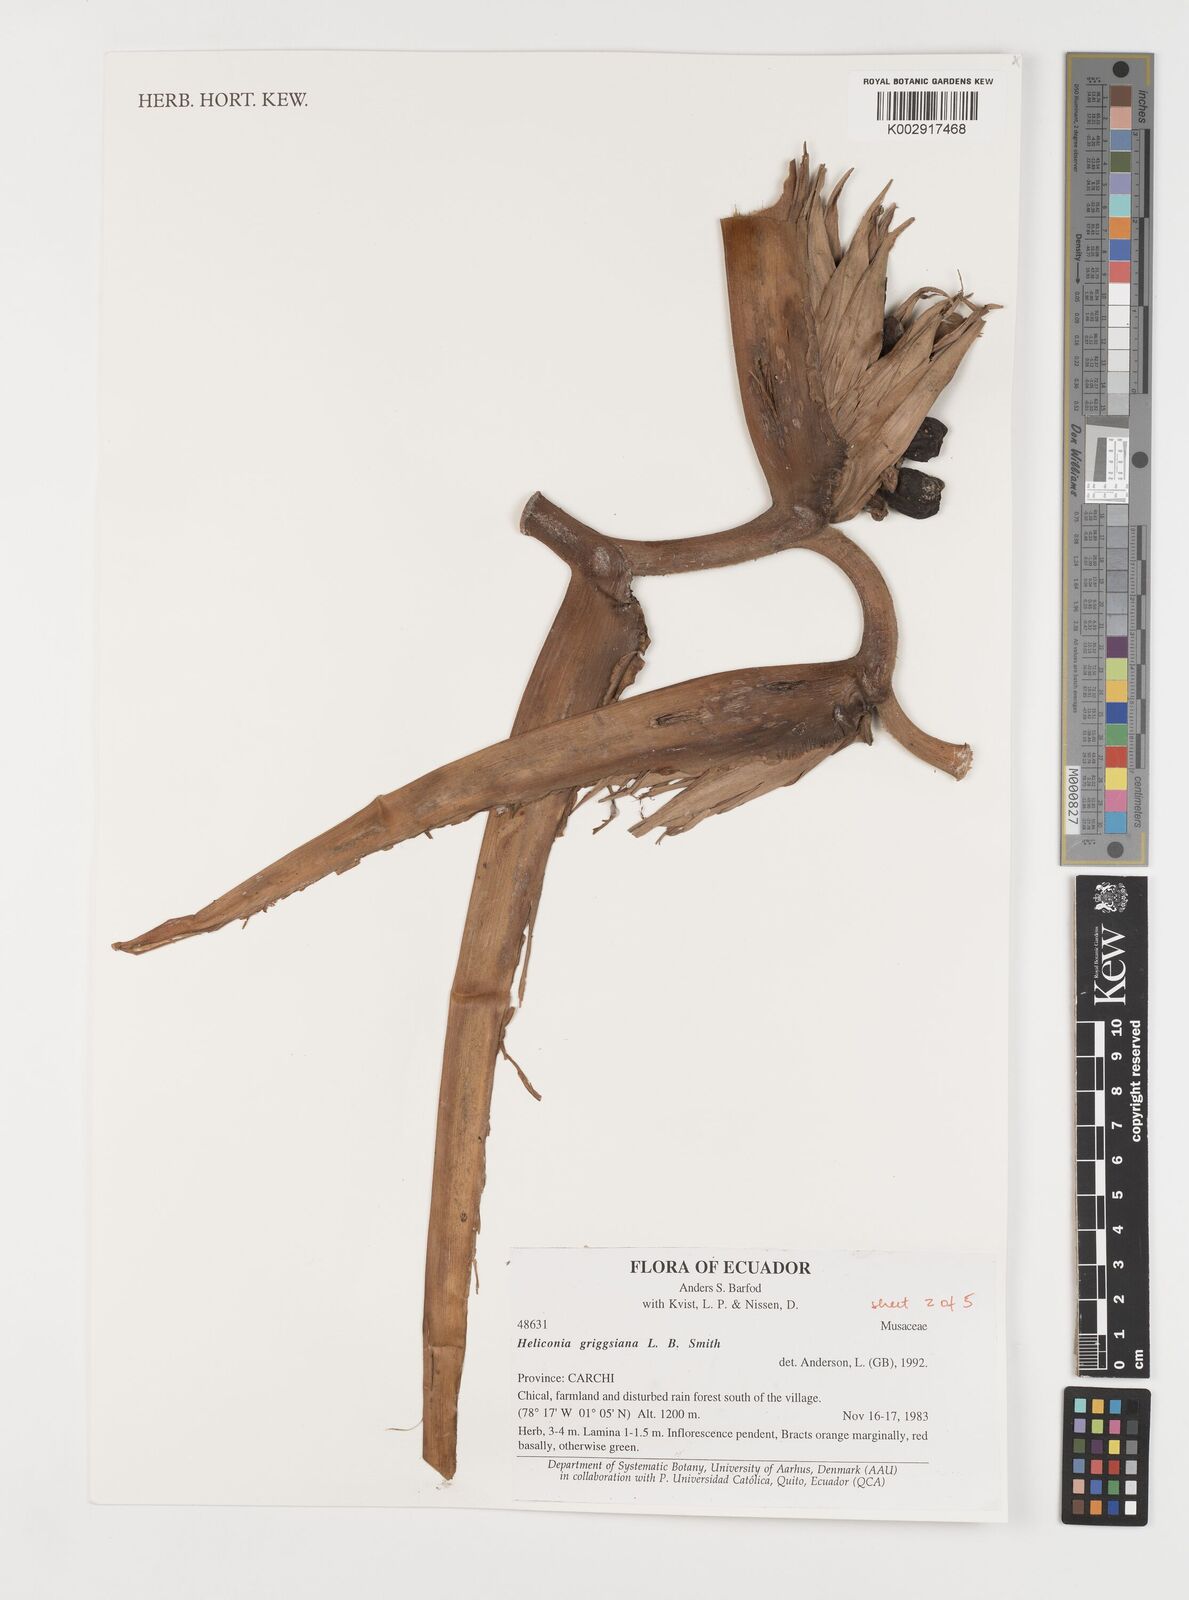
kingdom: Plantae
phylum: Tracheophyta
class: Liliopsida
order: Zingiberales
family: Heliconiaceae
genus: Heliconia
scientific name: Heliconia griggsiana
